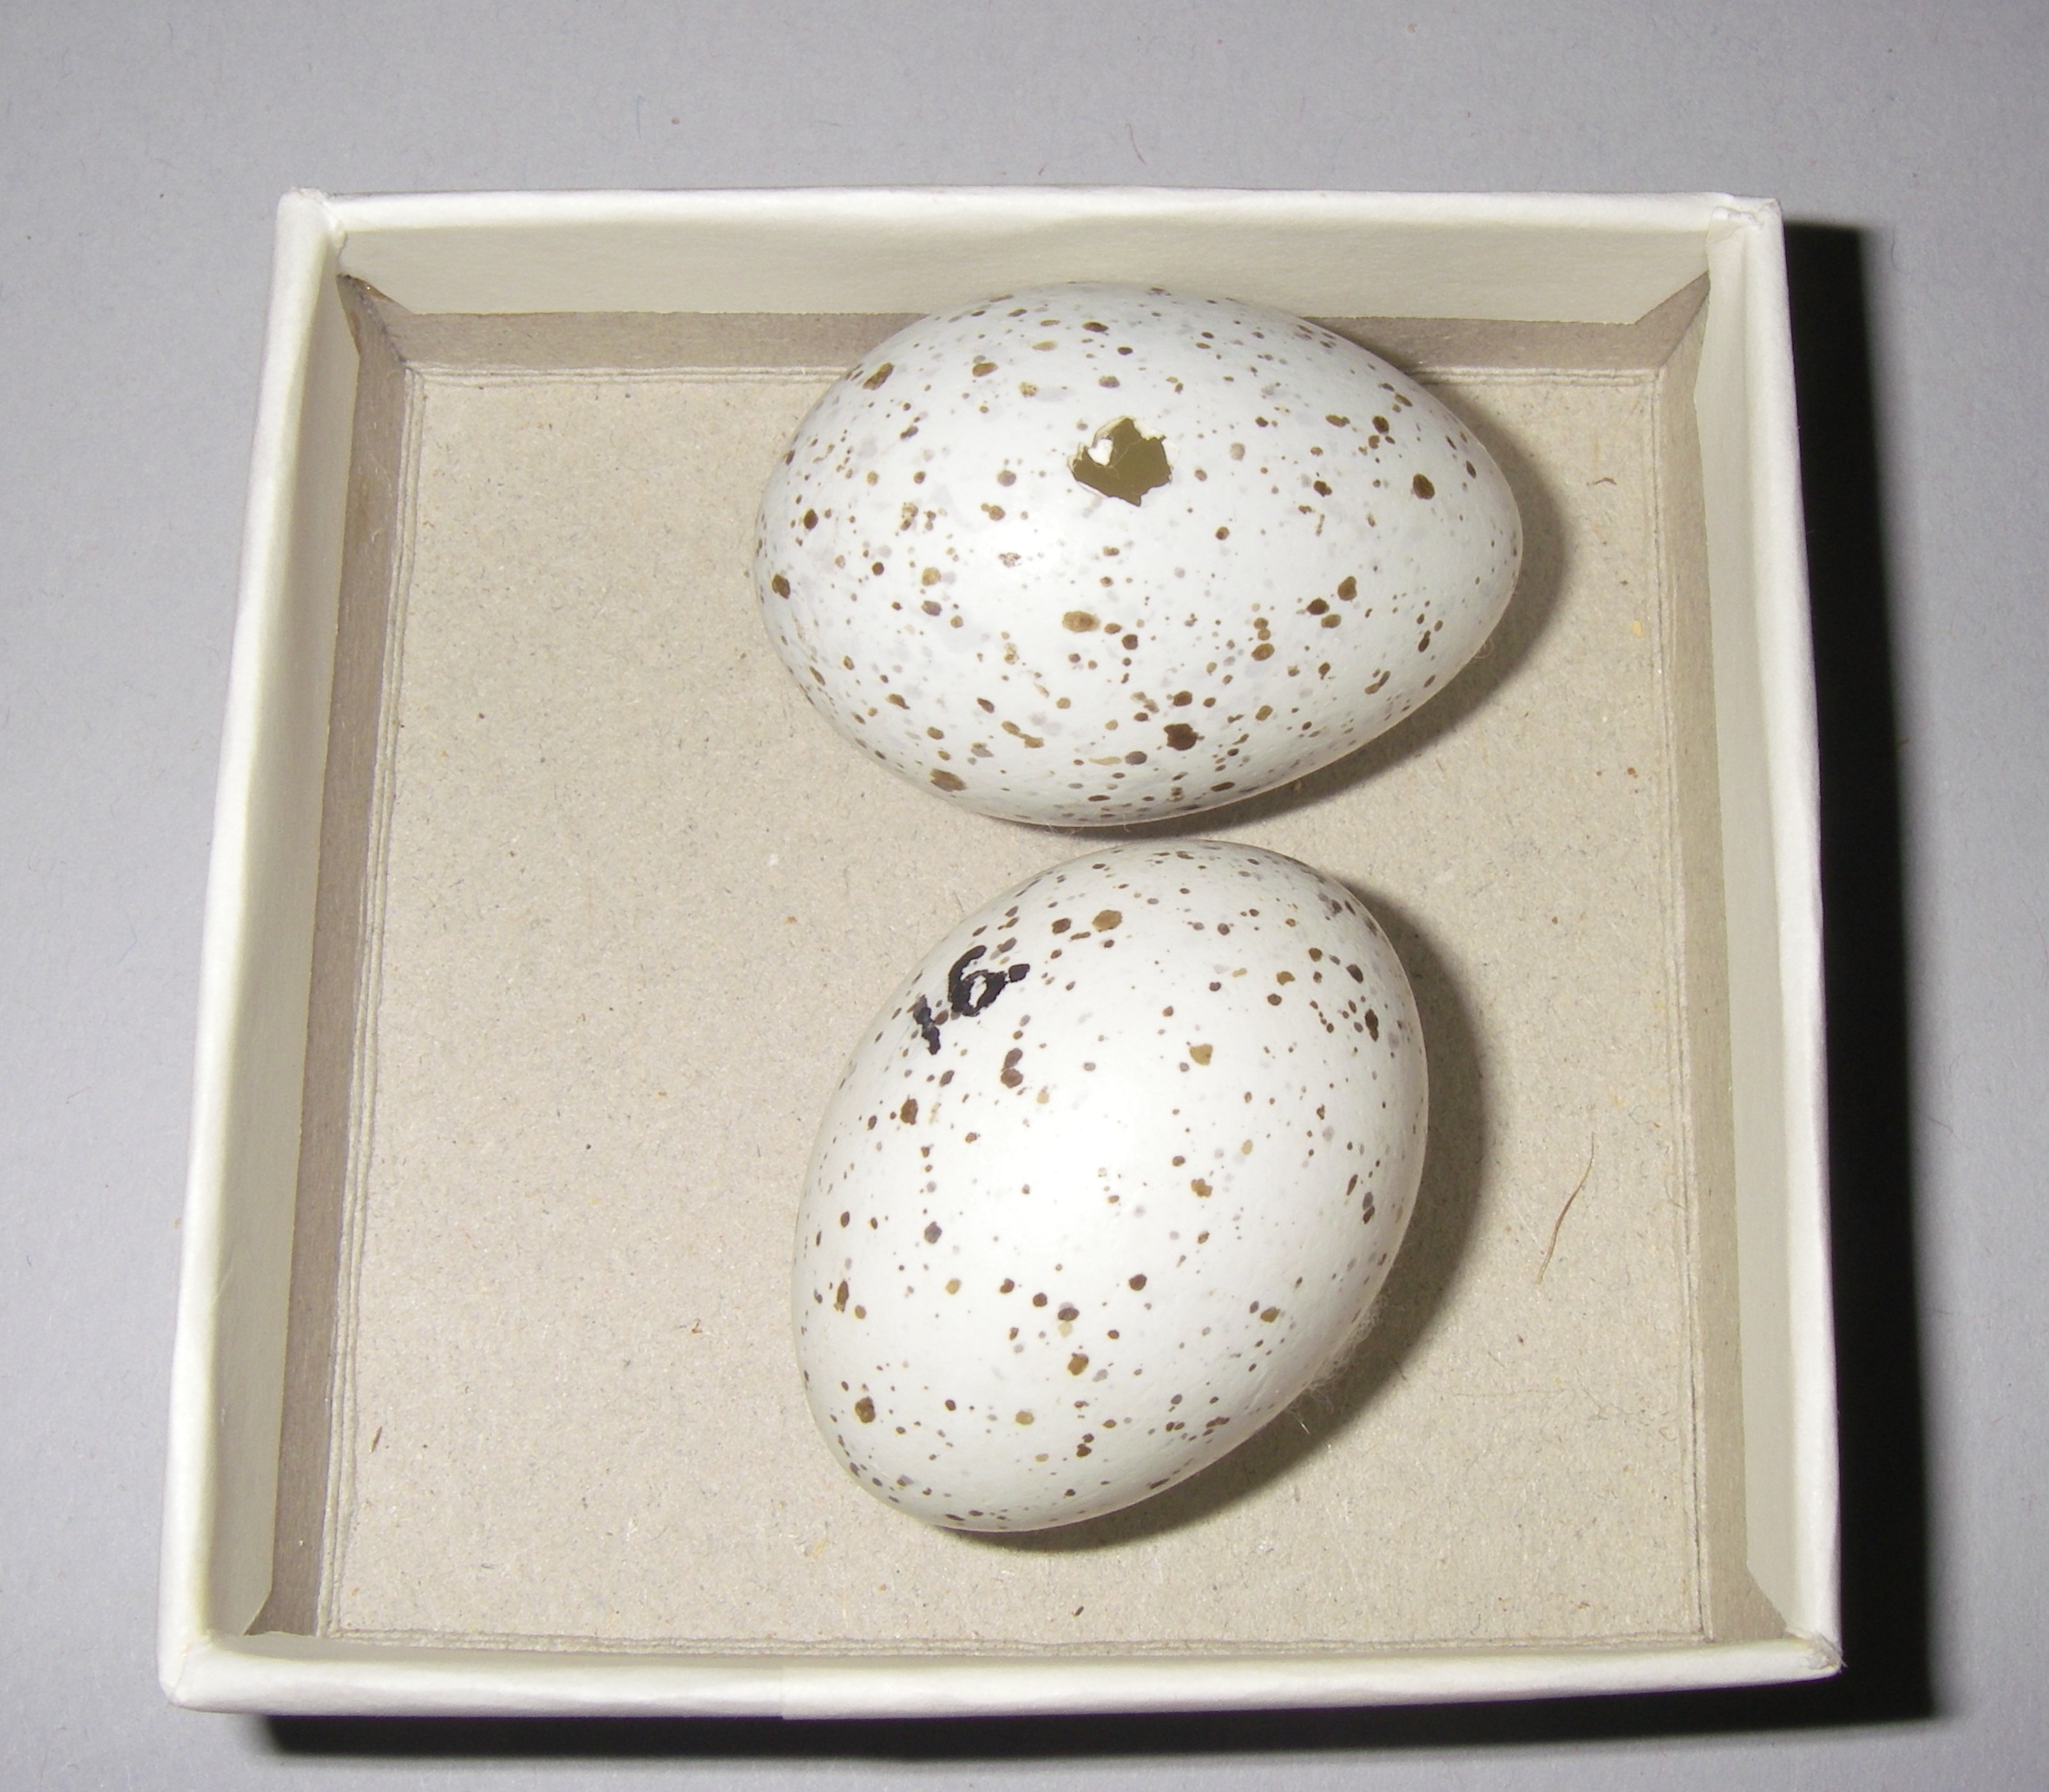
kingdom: Animalia
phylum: Chordata
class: Aves
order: Passeriformes
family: Corvidae
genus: Nucifraga
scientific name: Nucifraga caryocatactes
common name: Spotted nutcracker
